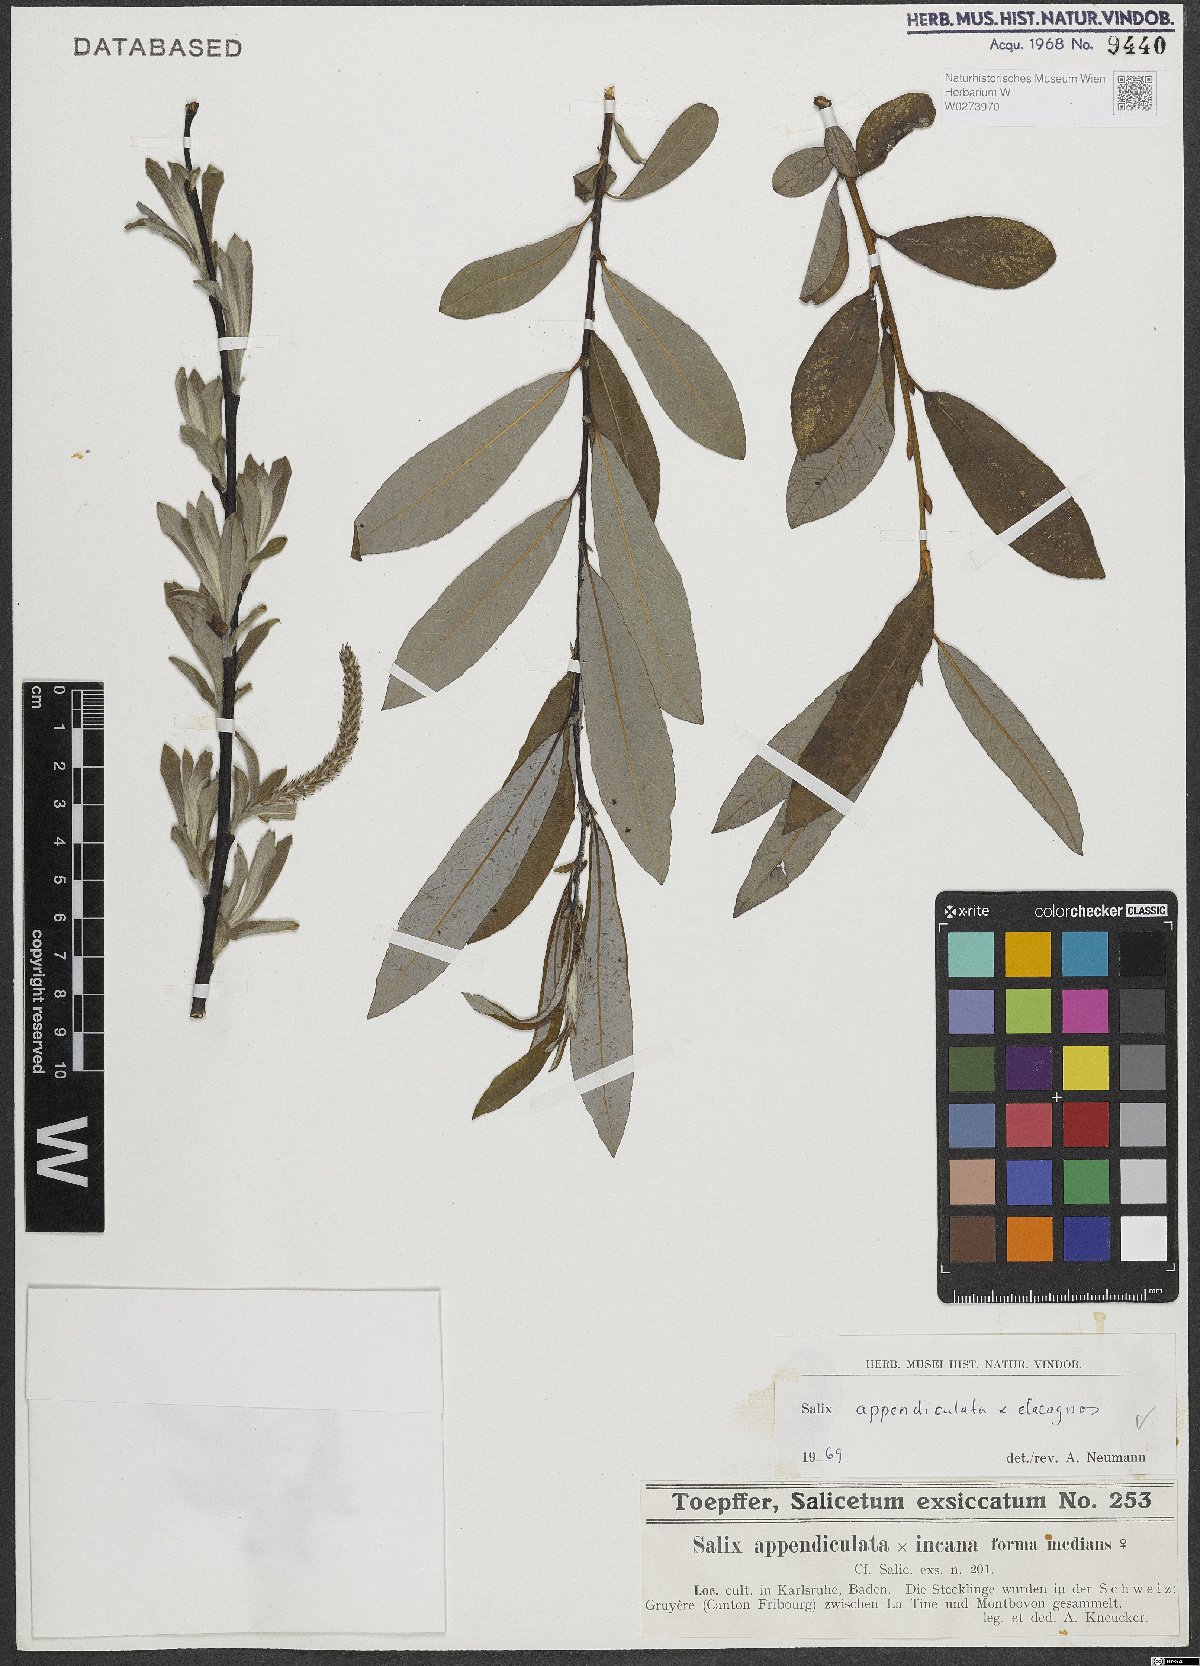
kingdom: Plantae
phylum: Tracheophyta
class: Magnoliopsida
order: Malpighiales
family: Salicaceae
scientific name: Salicaceae
